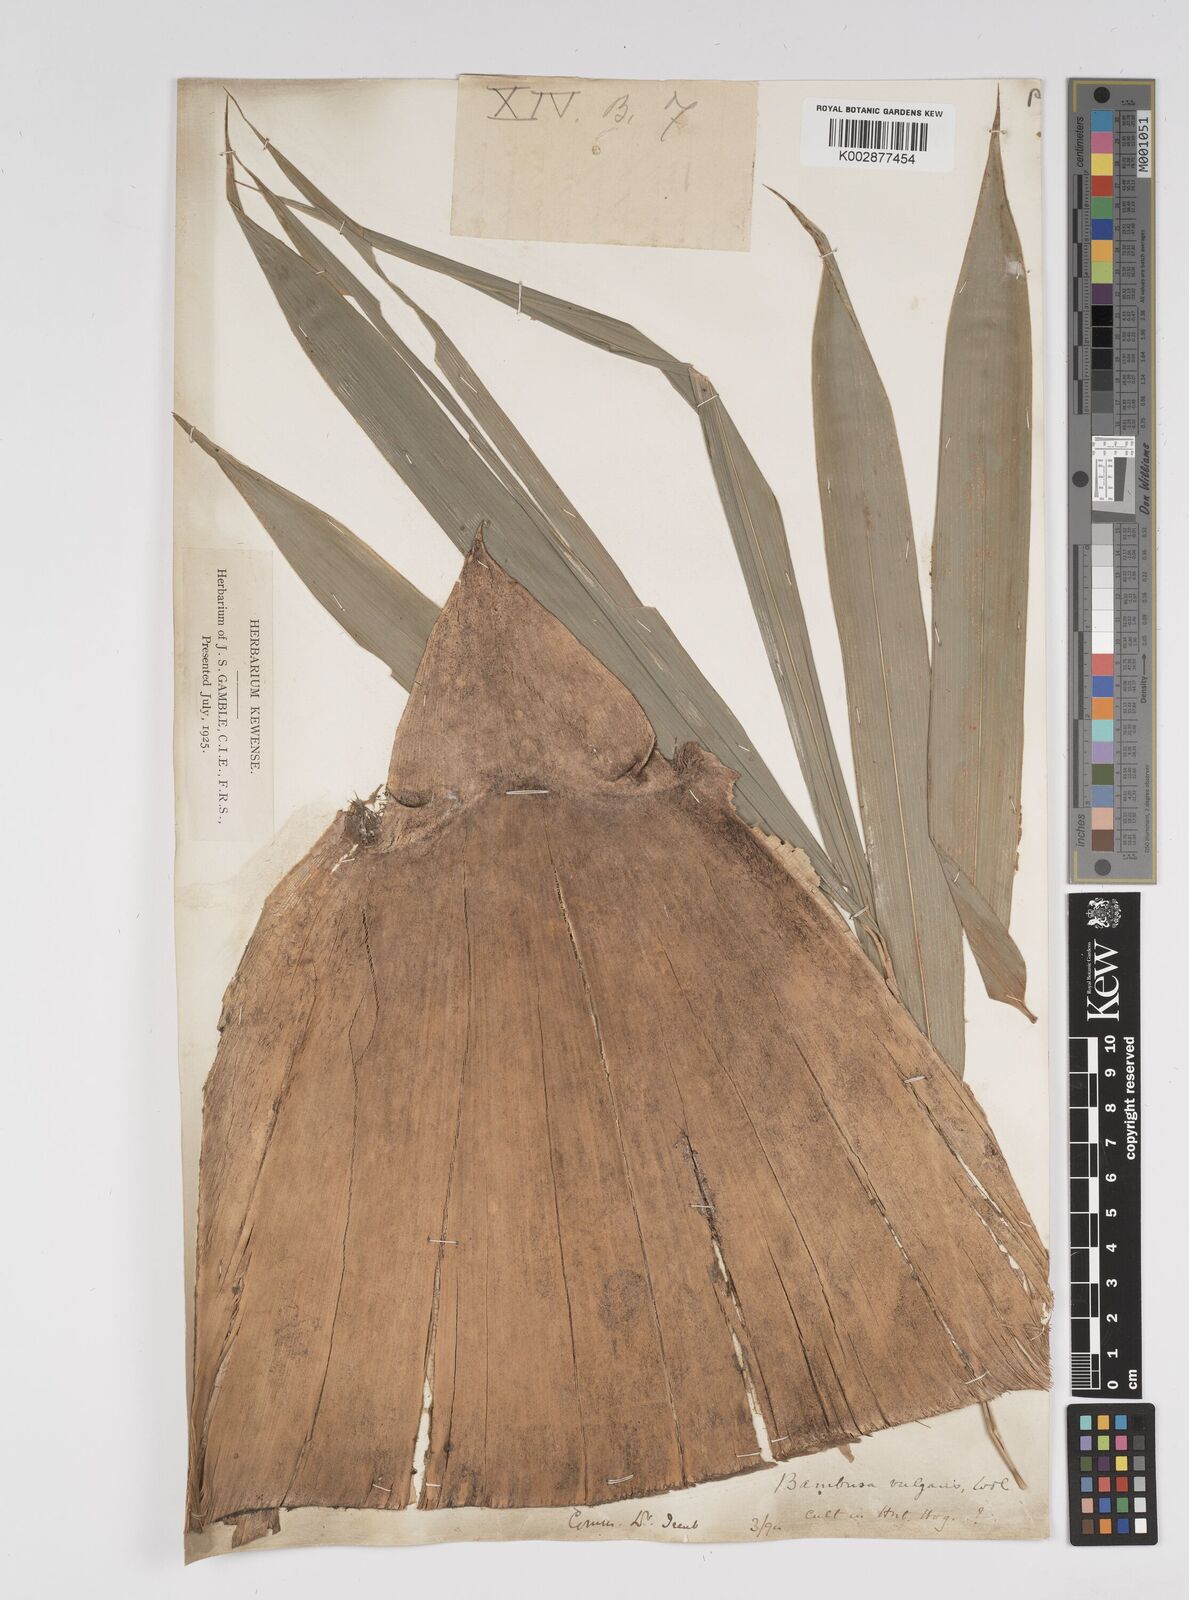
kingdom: Plantae
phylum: Tracheophyta
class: Liliopsida
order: Poales
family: Poaceae
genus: Bambusa
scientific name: Bambusa vulgaris
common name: Common bamboo
